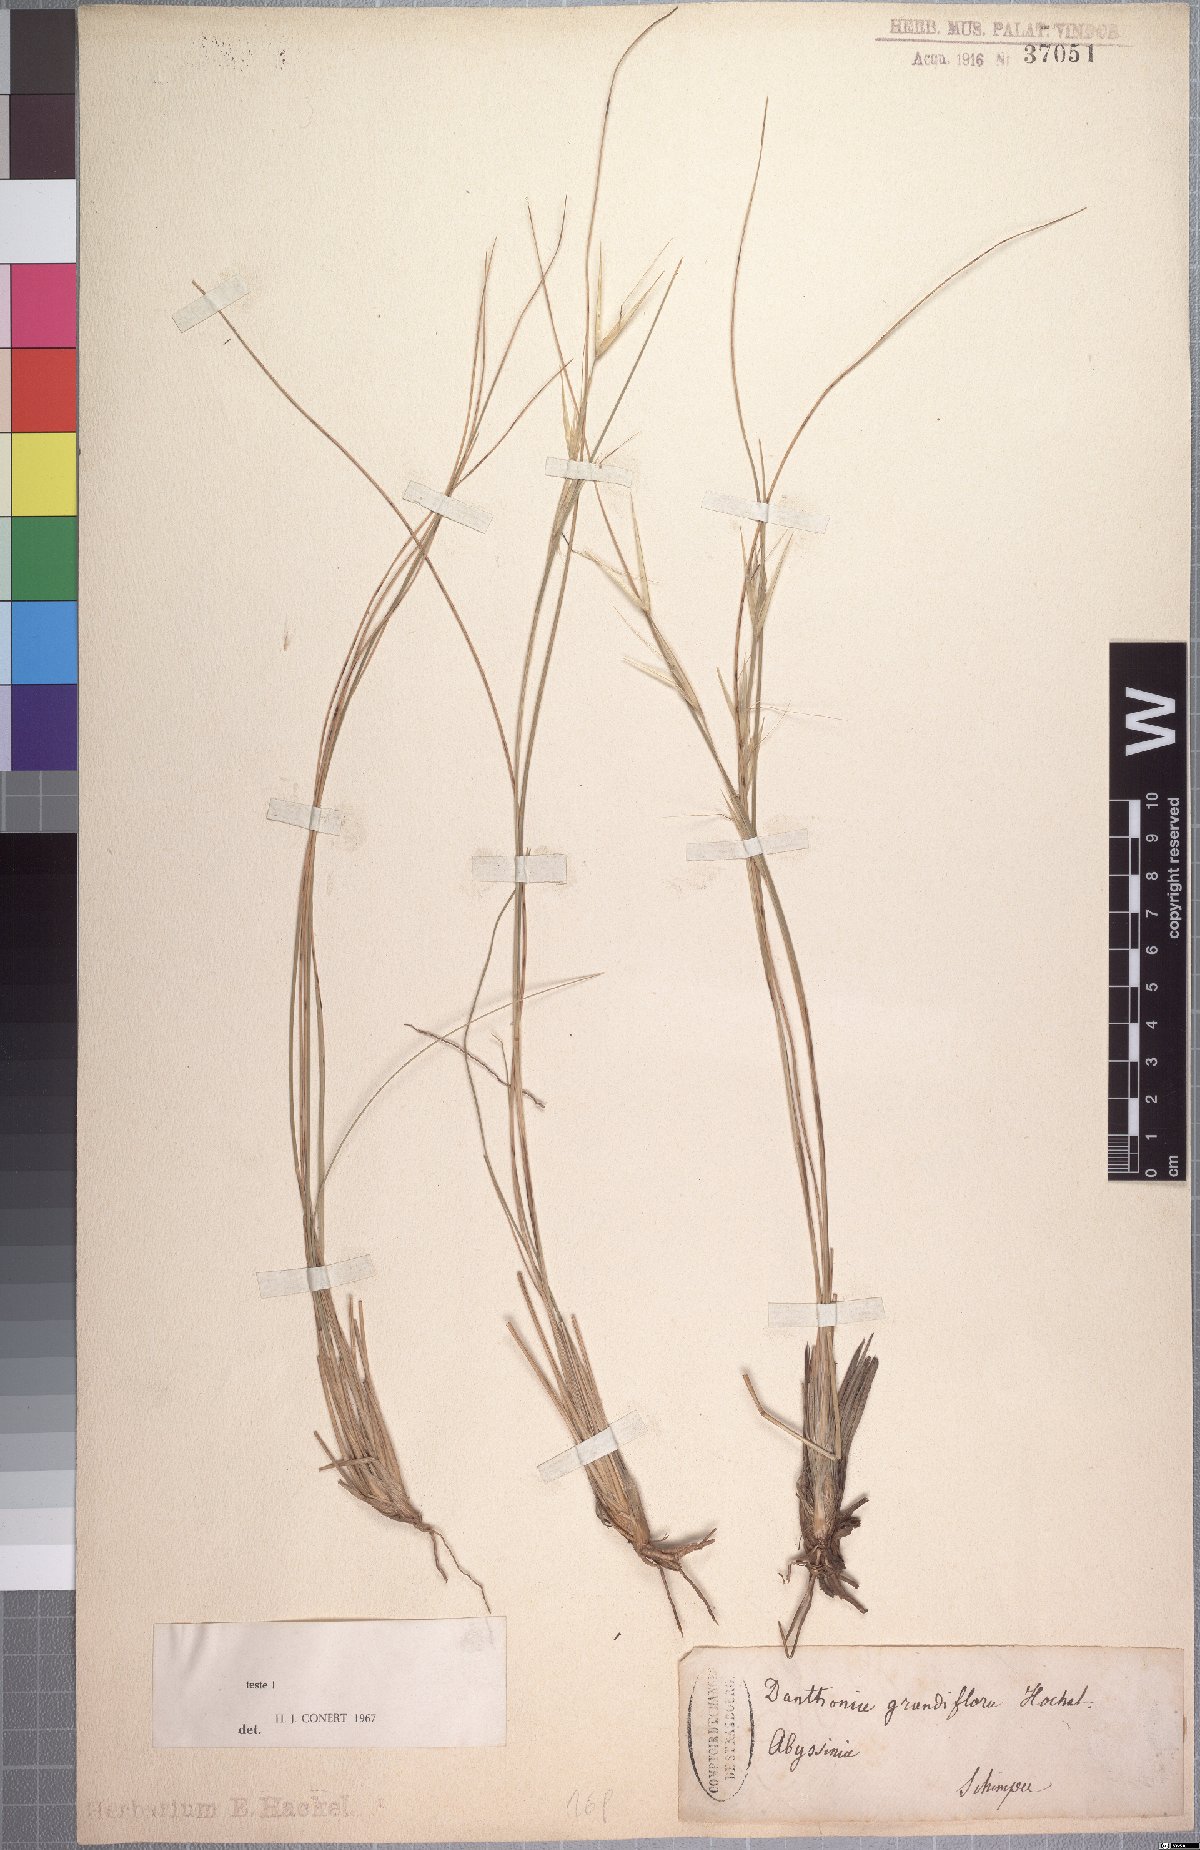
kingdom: Plantae
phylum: Tracheophyta
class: Liliopsida
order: Poales
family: Poaceae
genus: Merxmuellera
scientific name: Merxmuellera grandiflora
